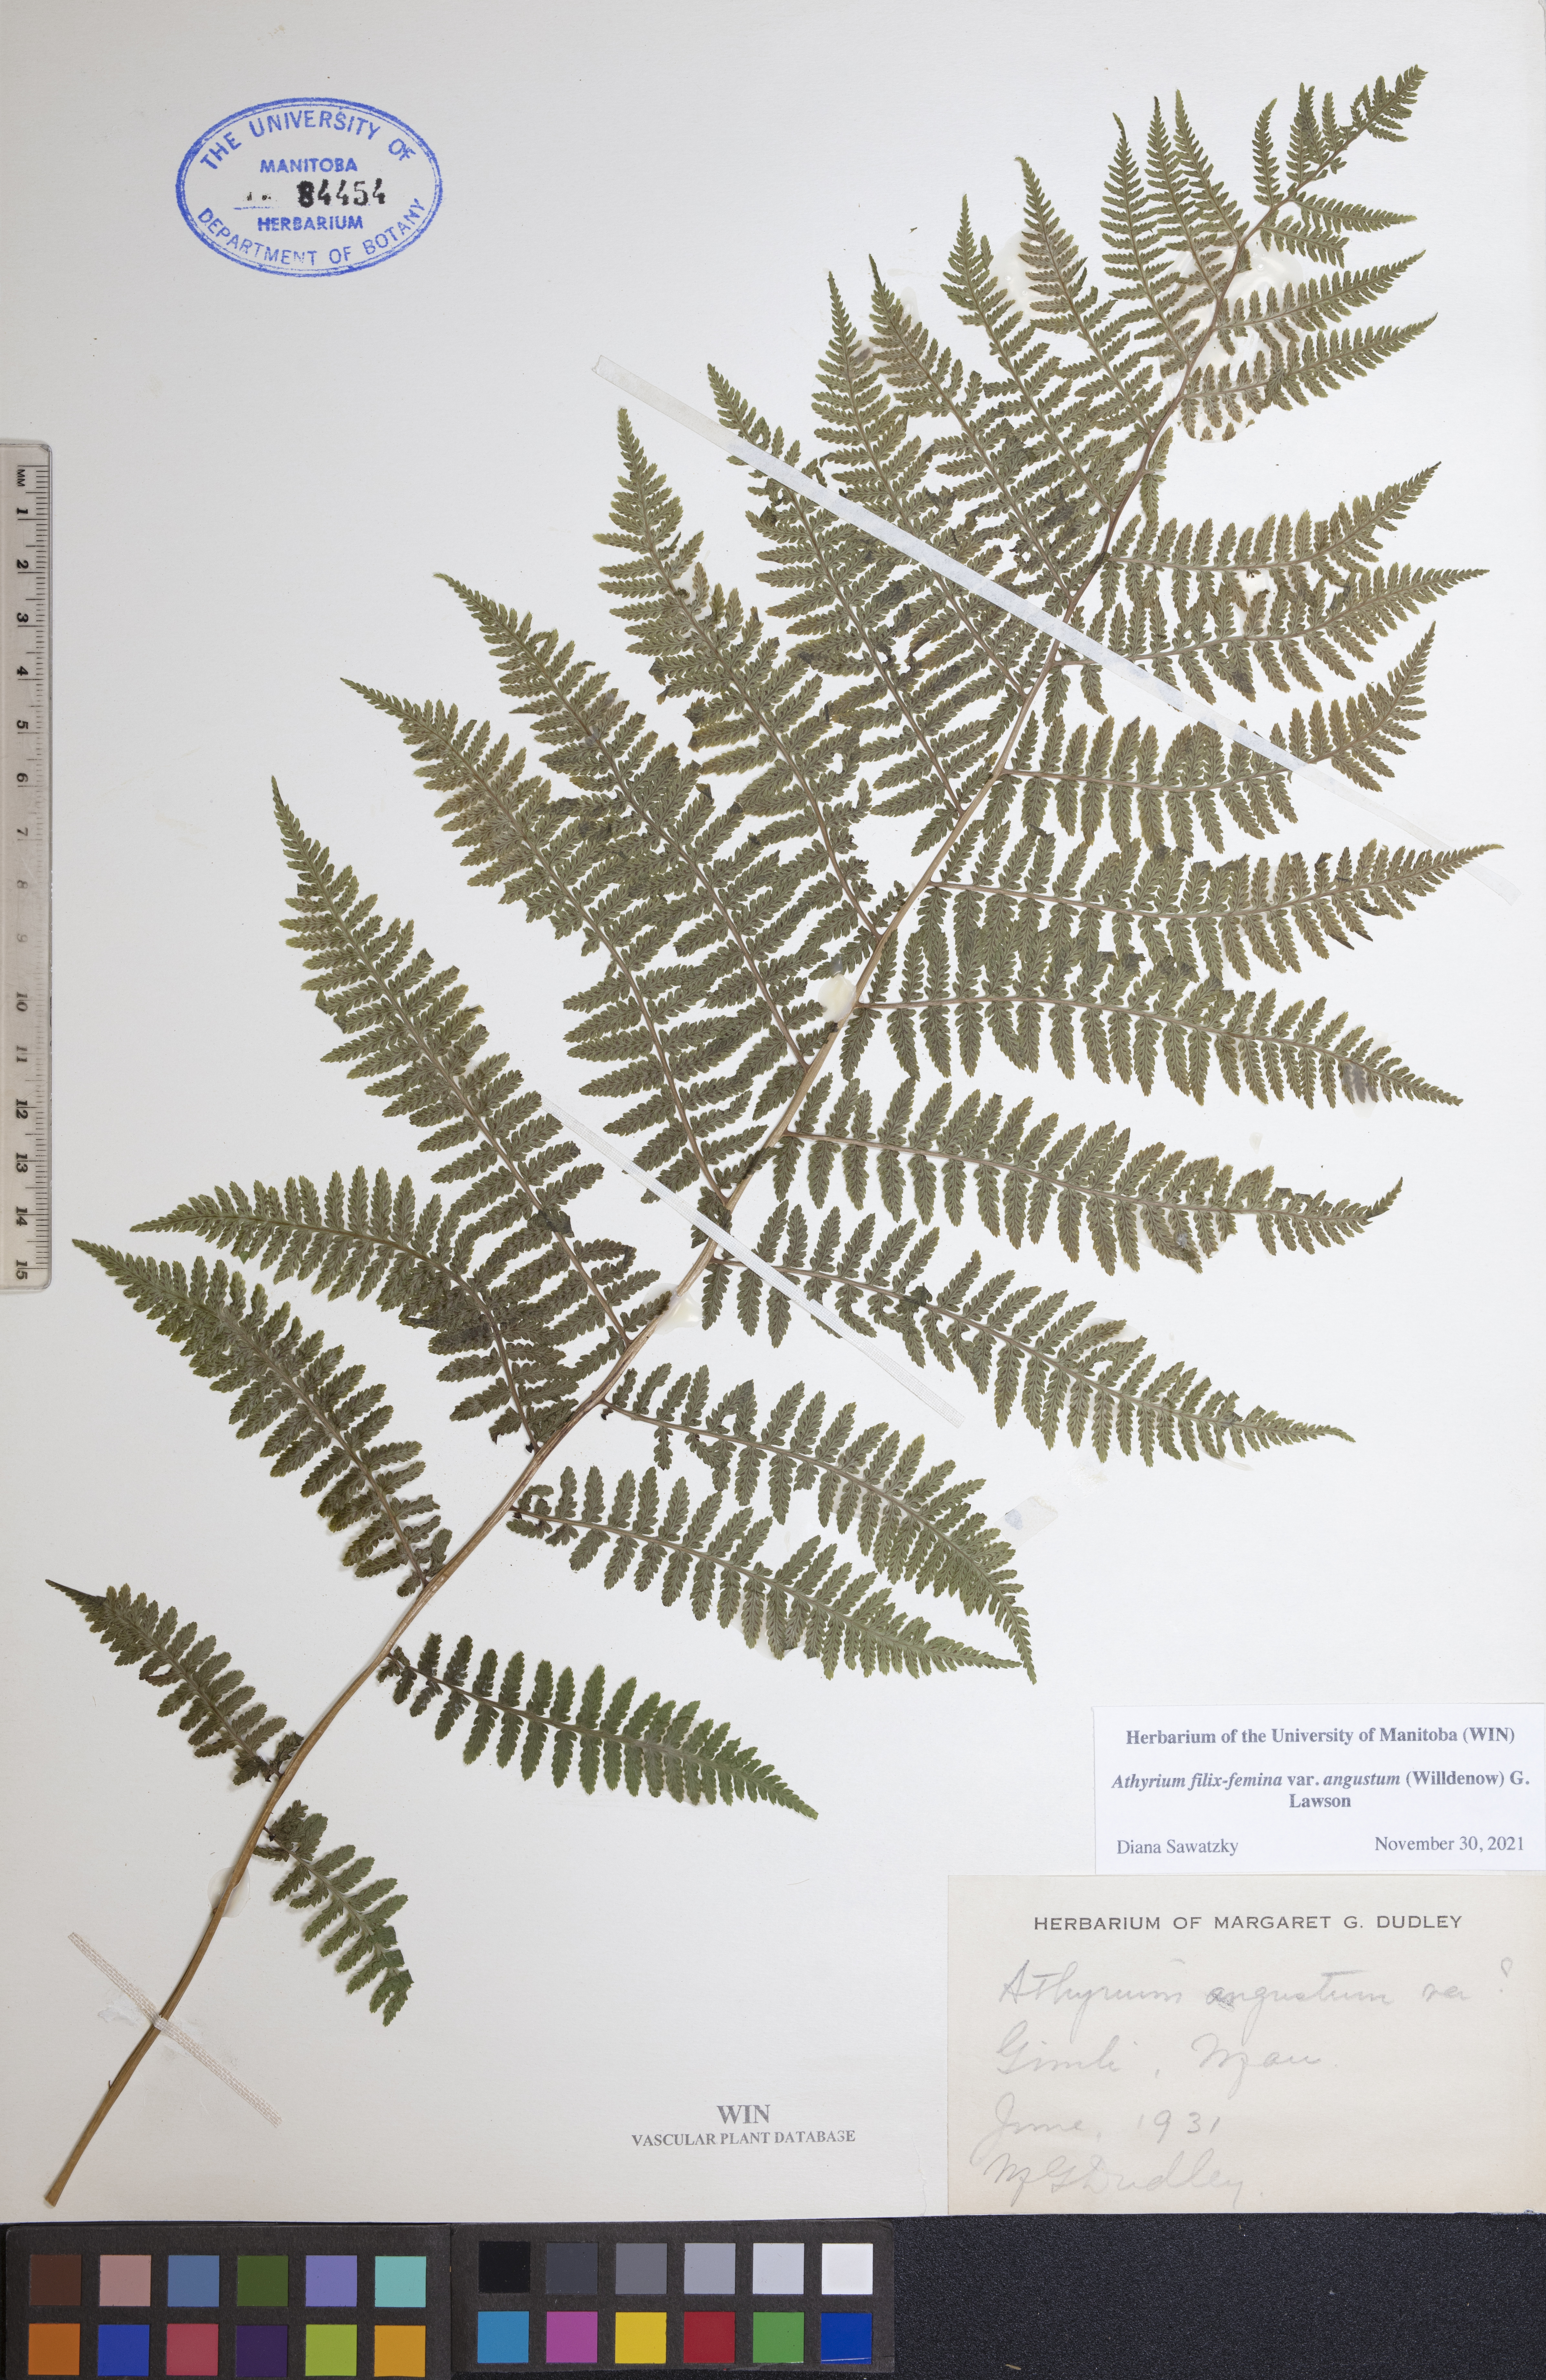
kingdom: Plantae
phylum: Tracheophyta
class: Polypodiopsida
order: Polypodiales
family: Athyriaceae
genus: Athyrium
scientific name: Athyrium angustum
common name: Northern lady fern
